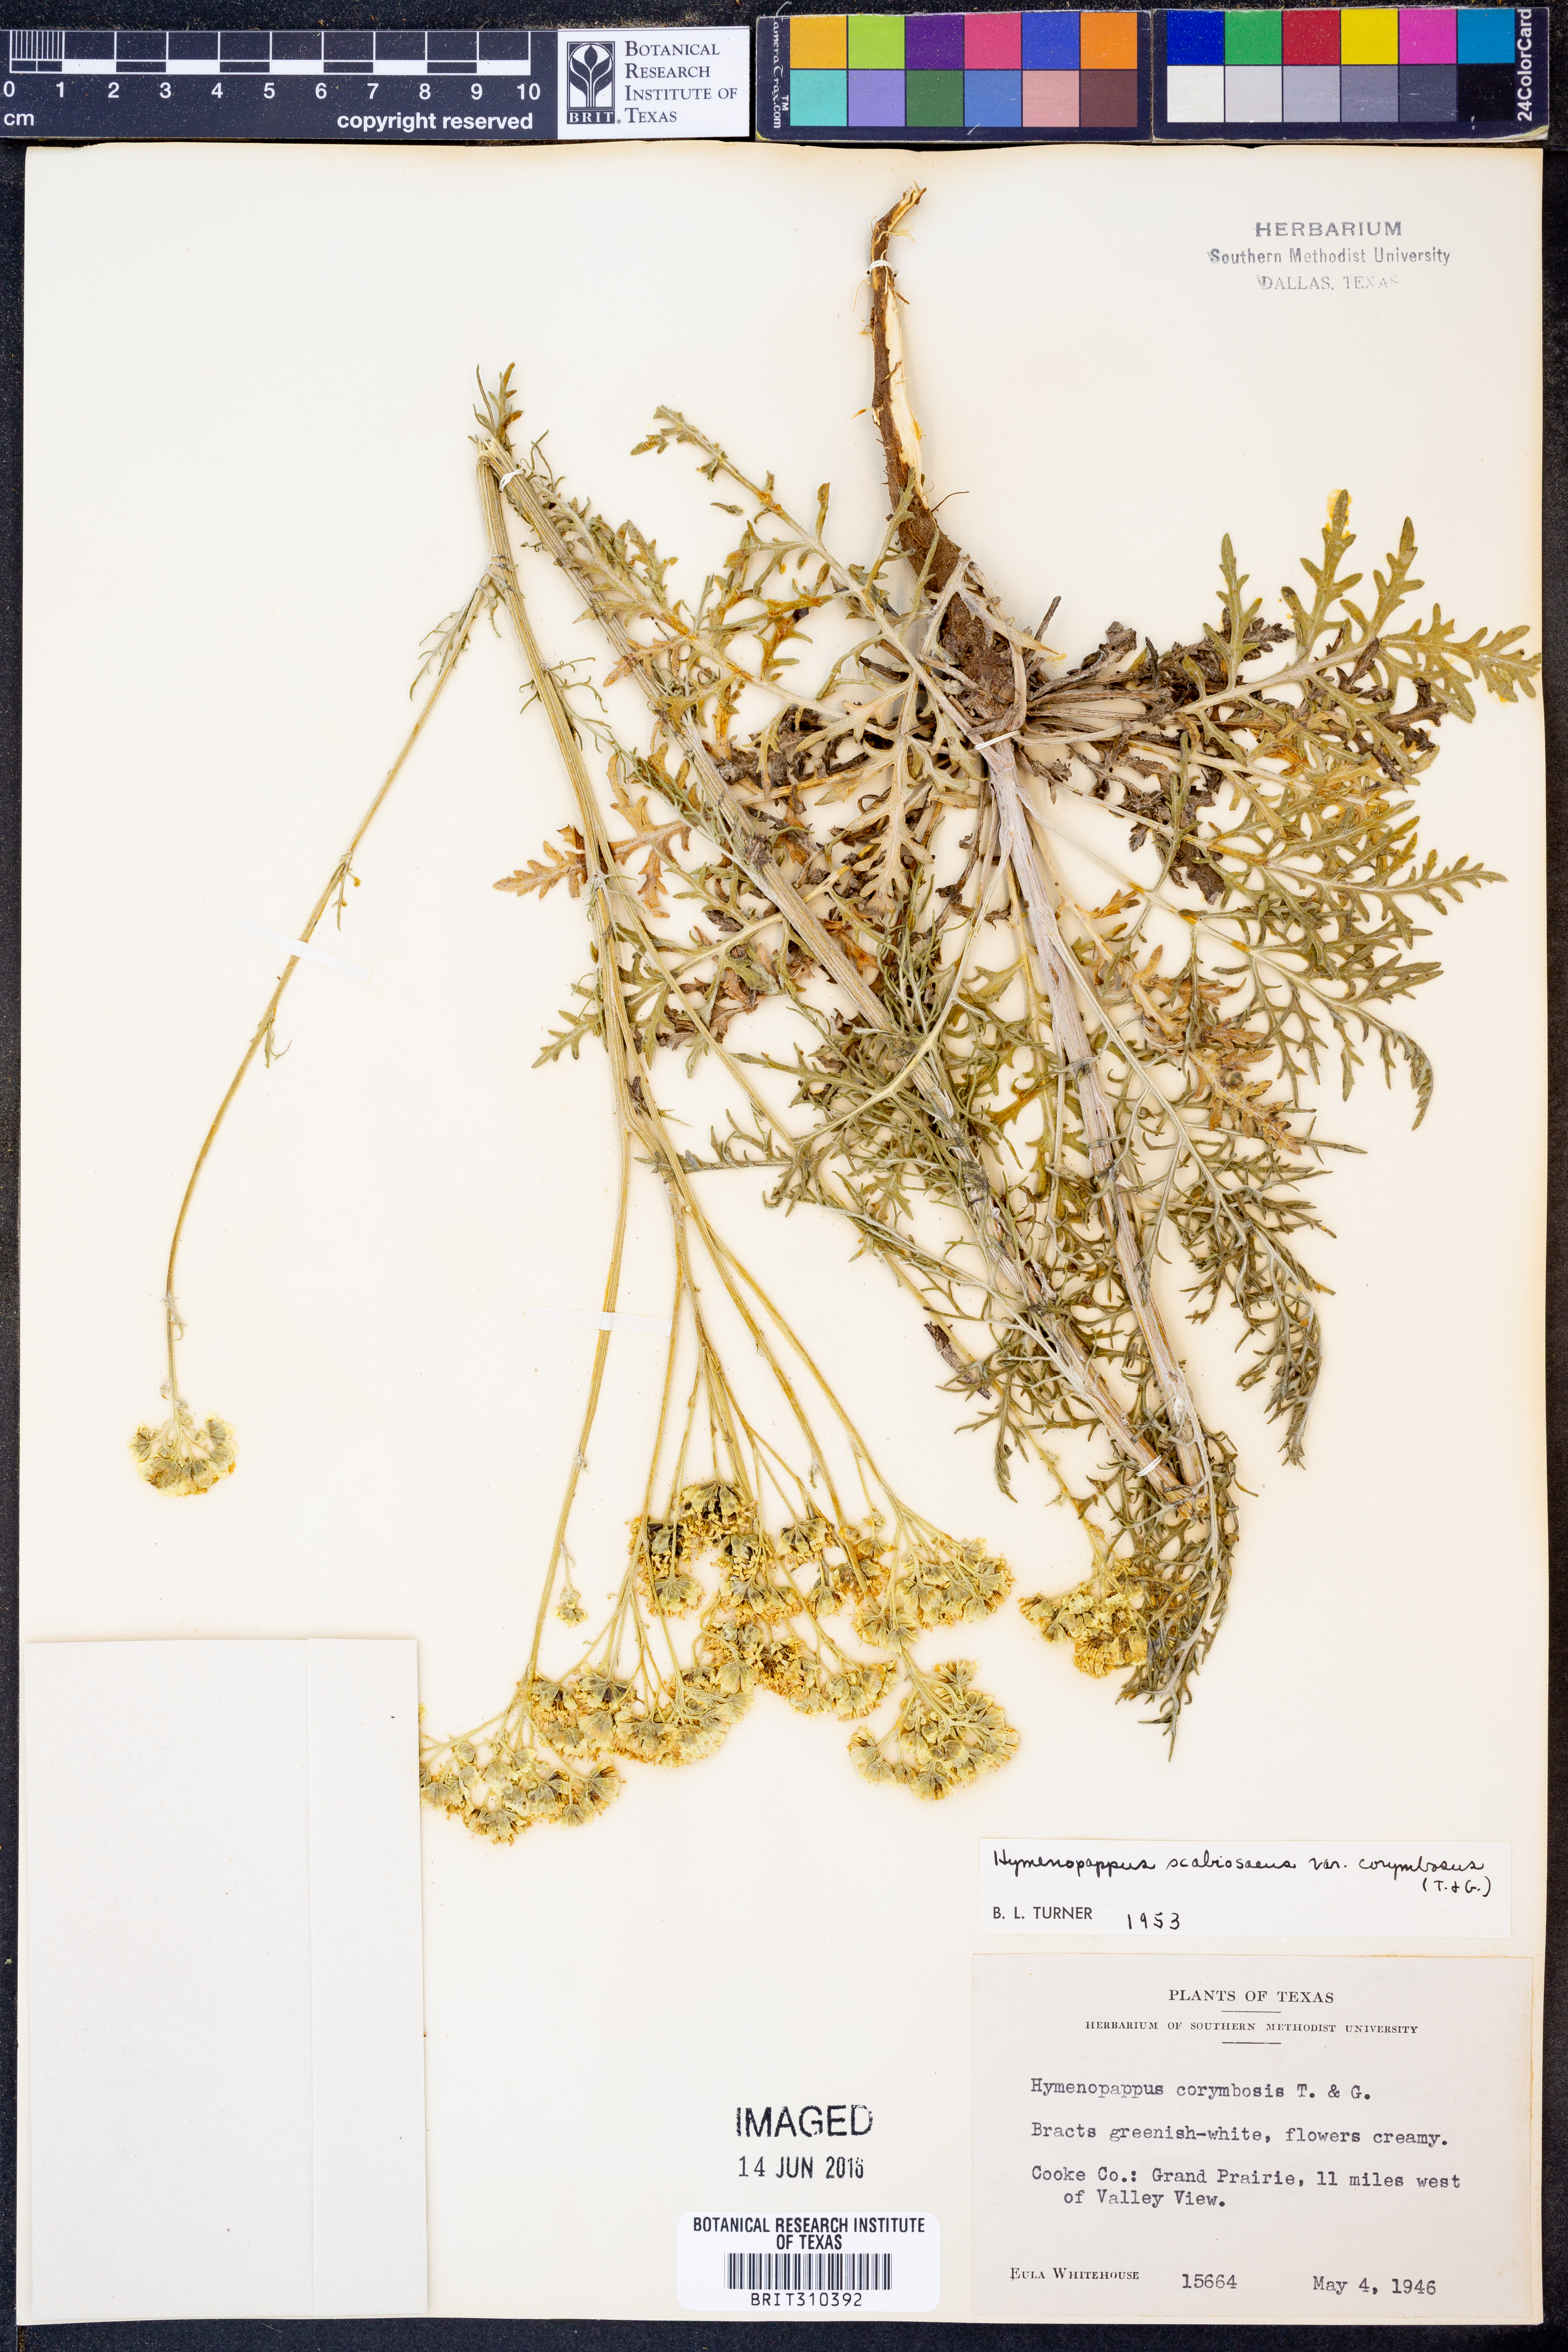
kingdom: Plantae
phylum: Tracheophyta
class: Magnoliopsida
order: Asterales
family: Asteraceae
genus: Hymenopappus
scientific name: Hymenopappus scabiosaeus
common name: Carolina woollywhite
